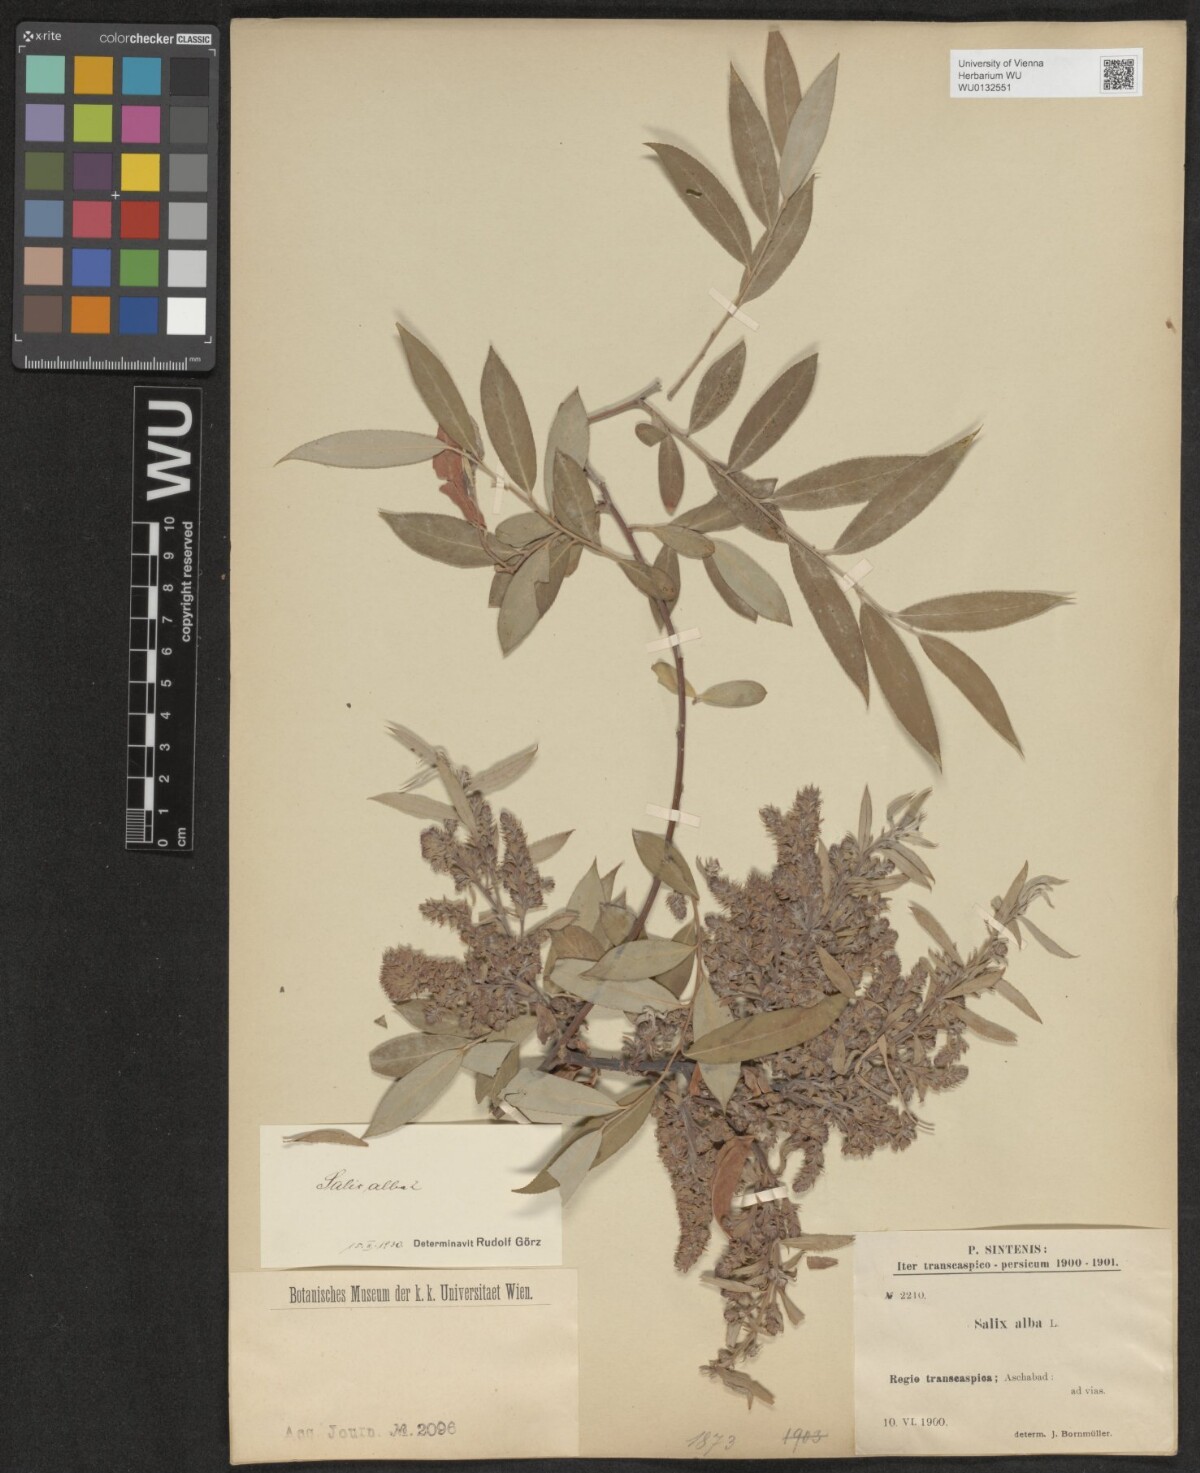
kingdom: Plantae
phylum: Tracheophyta
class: Magnoliopsida
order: Malpighiales
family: Salicaceae
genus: Salix
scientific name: Salix alba
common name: White willow
